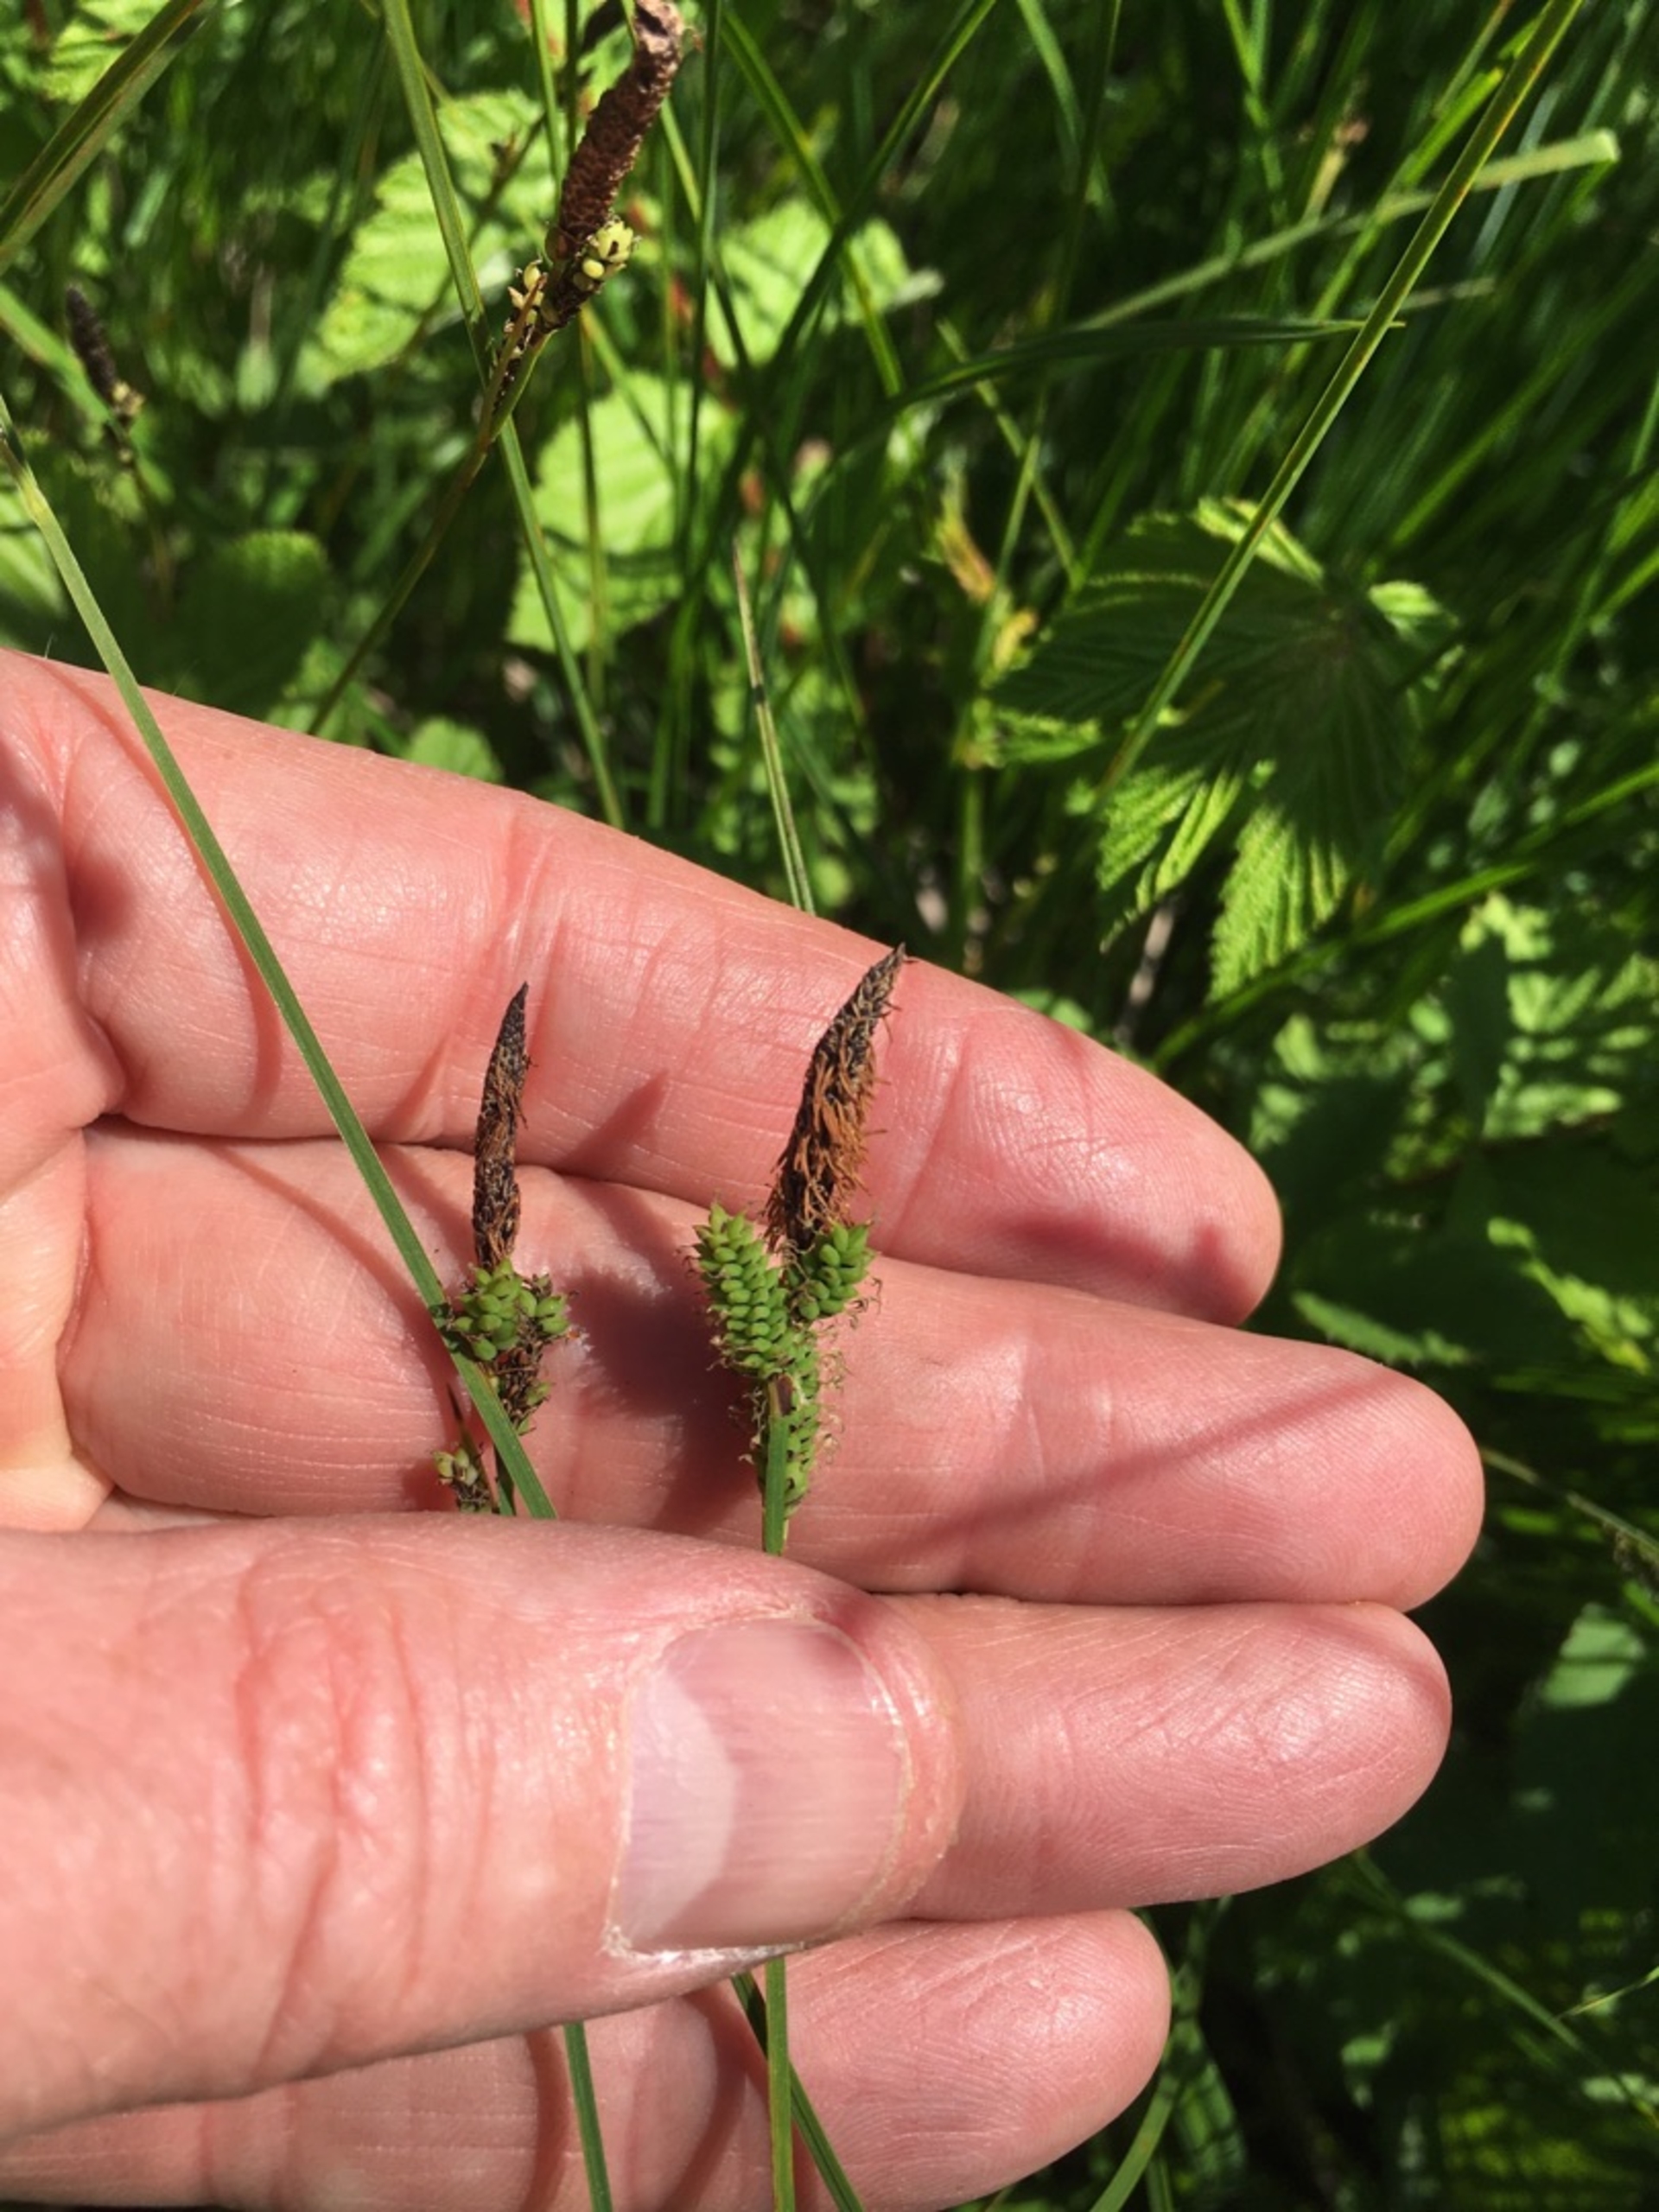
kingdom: Plantae
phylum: Tracheophyta
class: Liliopsida
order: Poales
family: Cyperaceae
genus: Carex
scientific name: Carex cespitosa
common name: Tue-star
